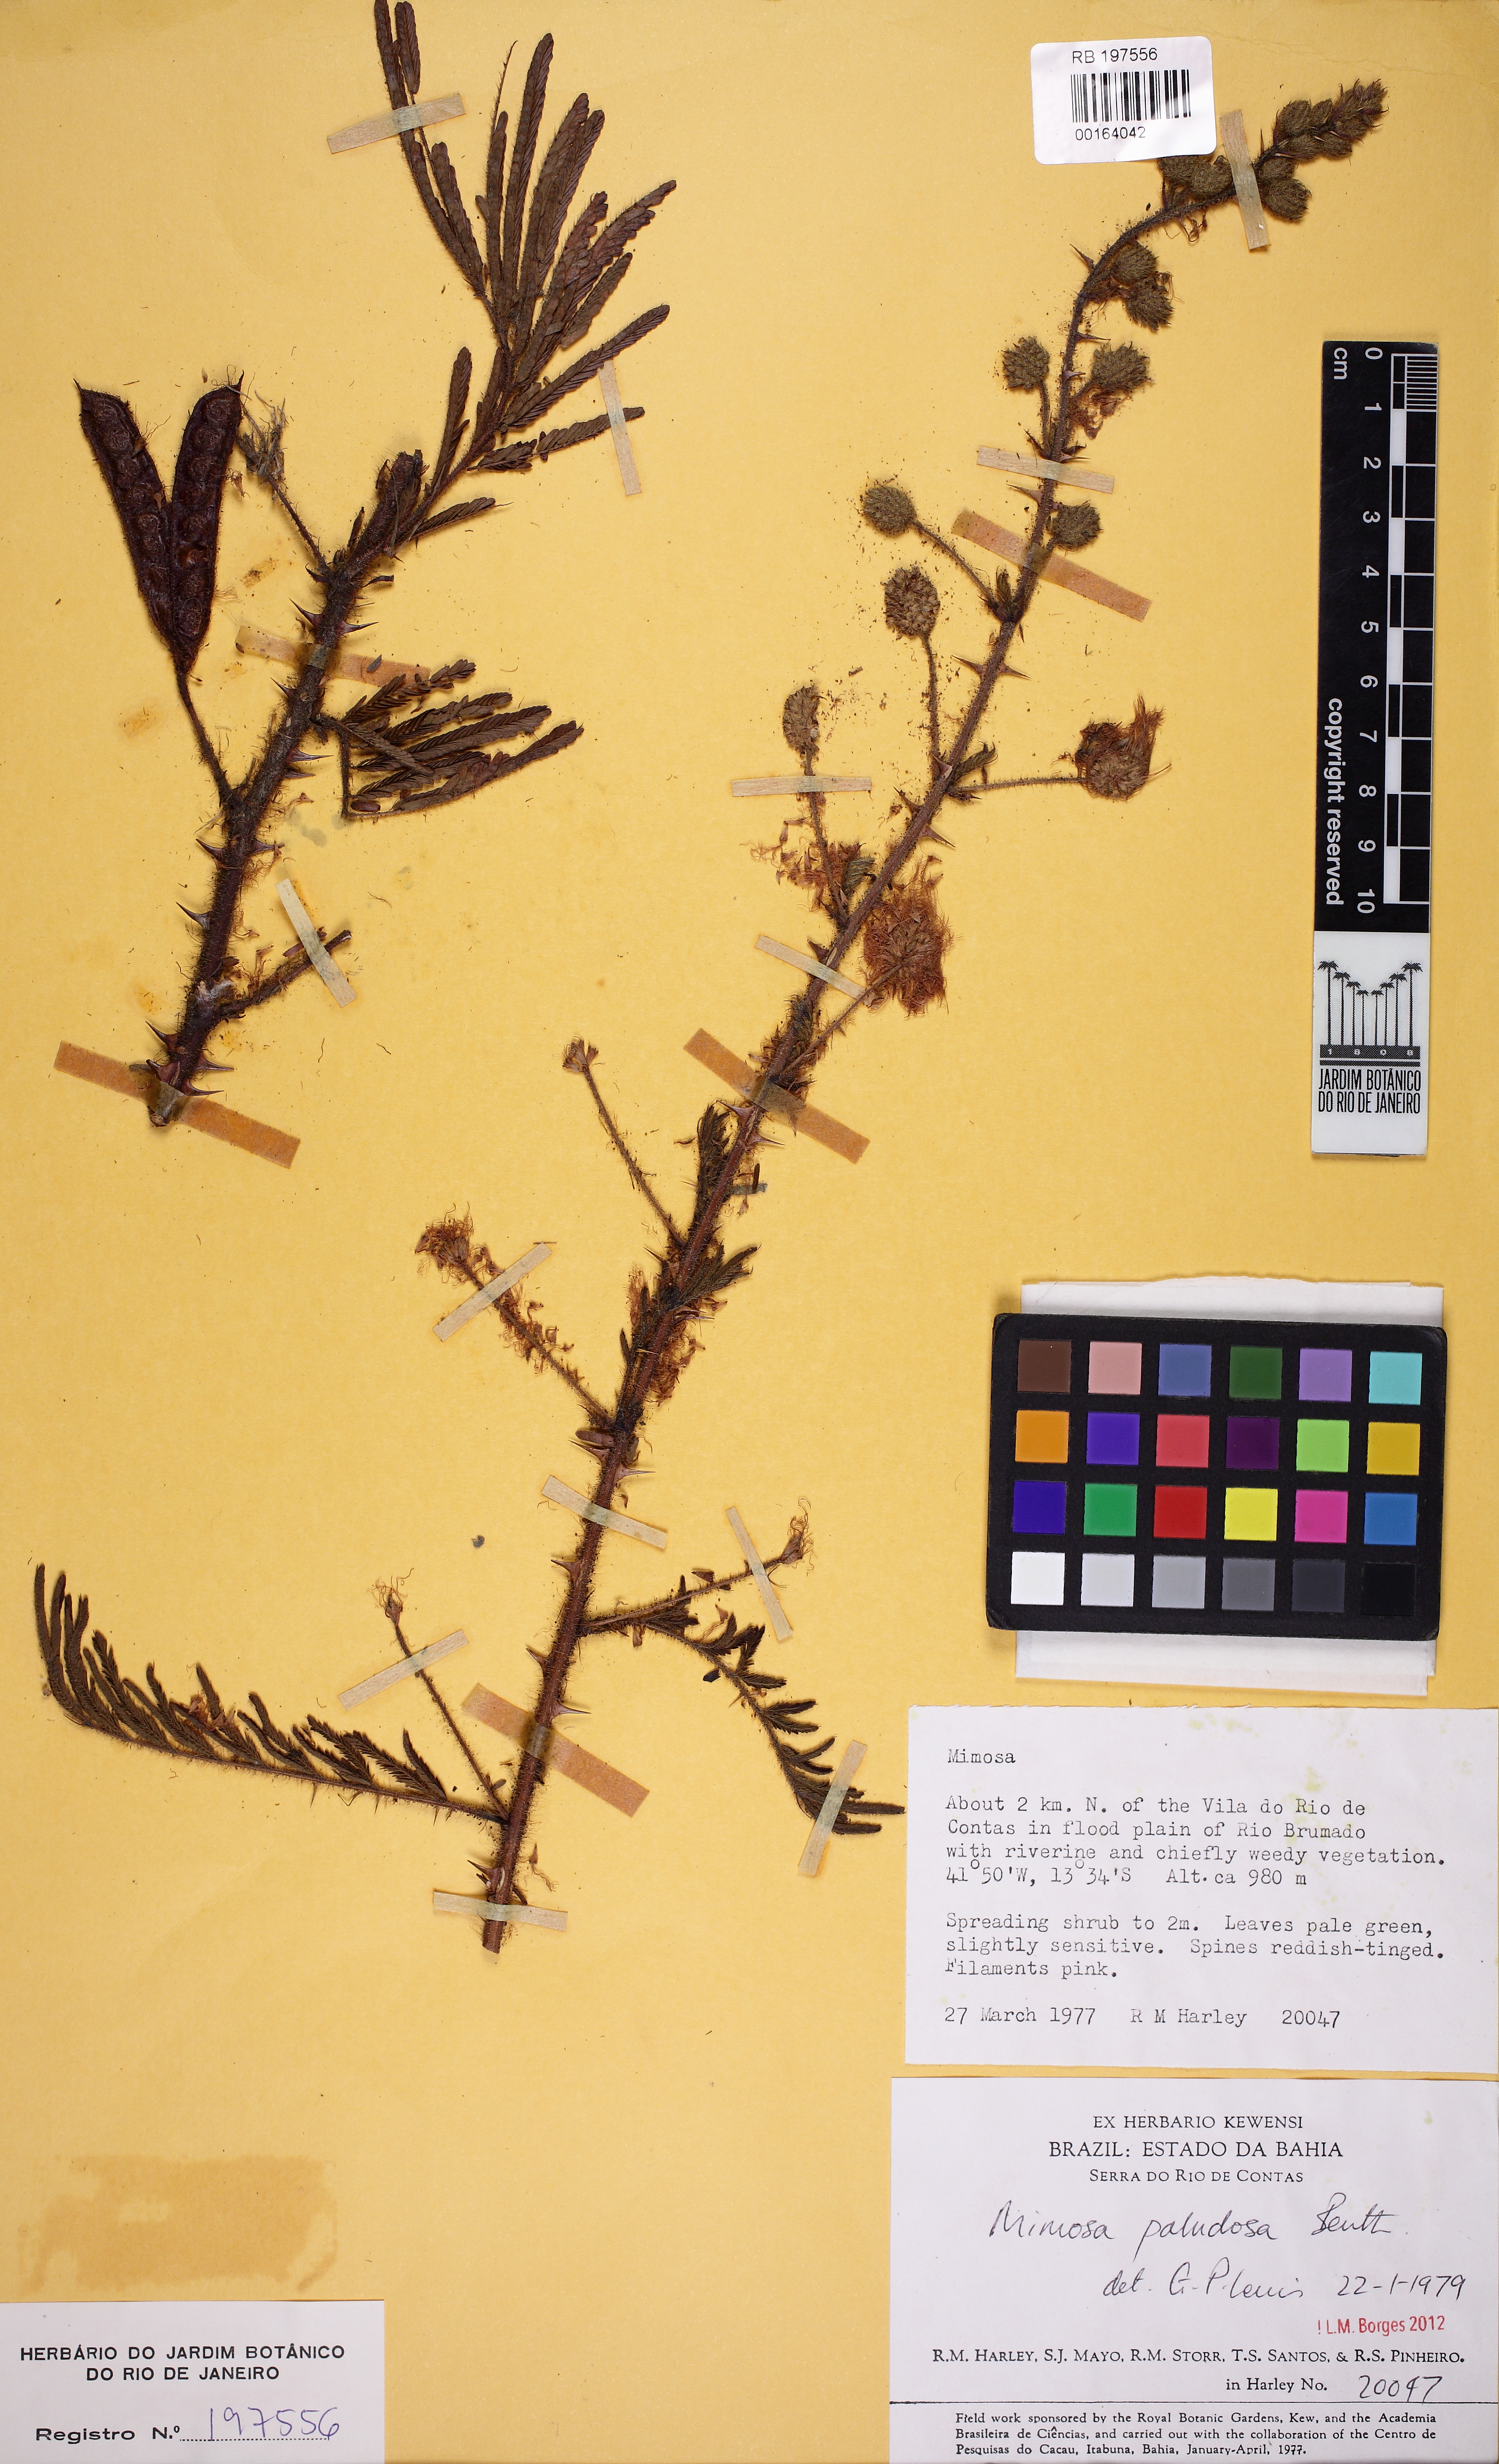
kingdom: Plantae
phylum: Tracheophyta
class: Magnoliopsida
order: Fabales
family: Fabaceae
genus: Mimosa
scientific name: Mimosa paludosa
